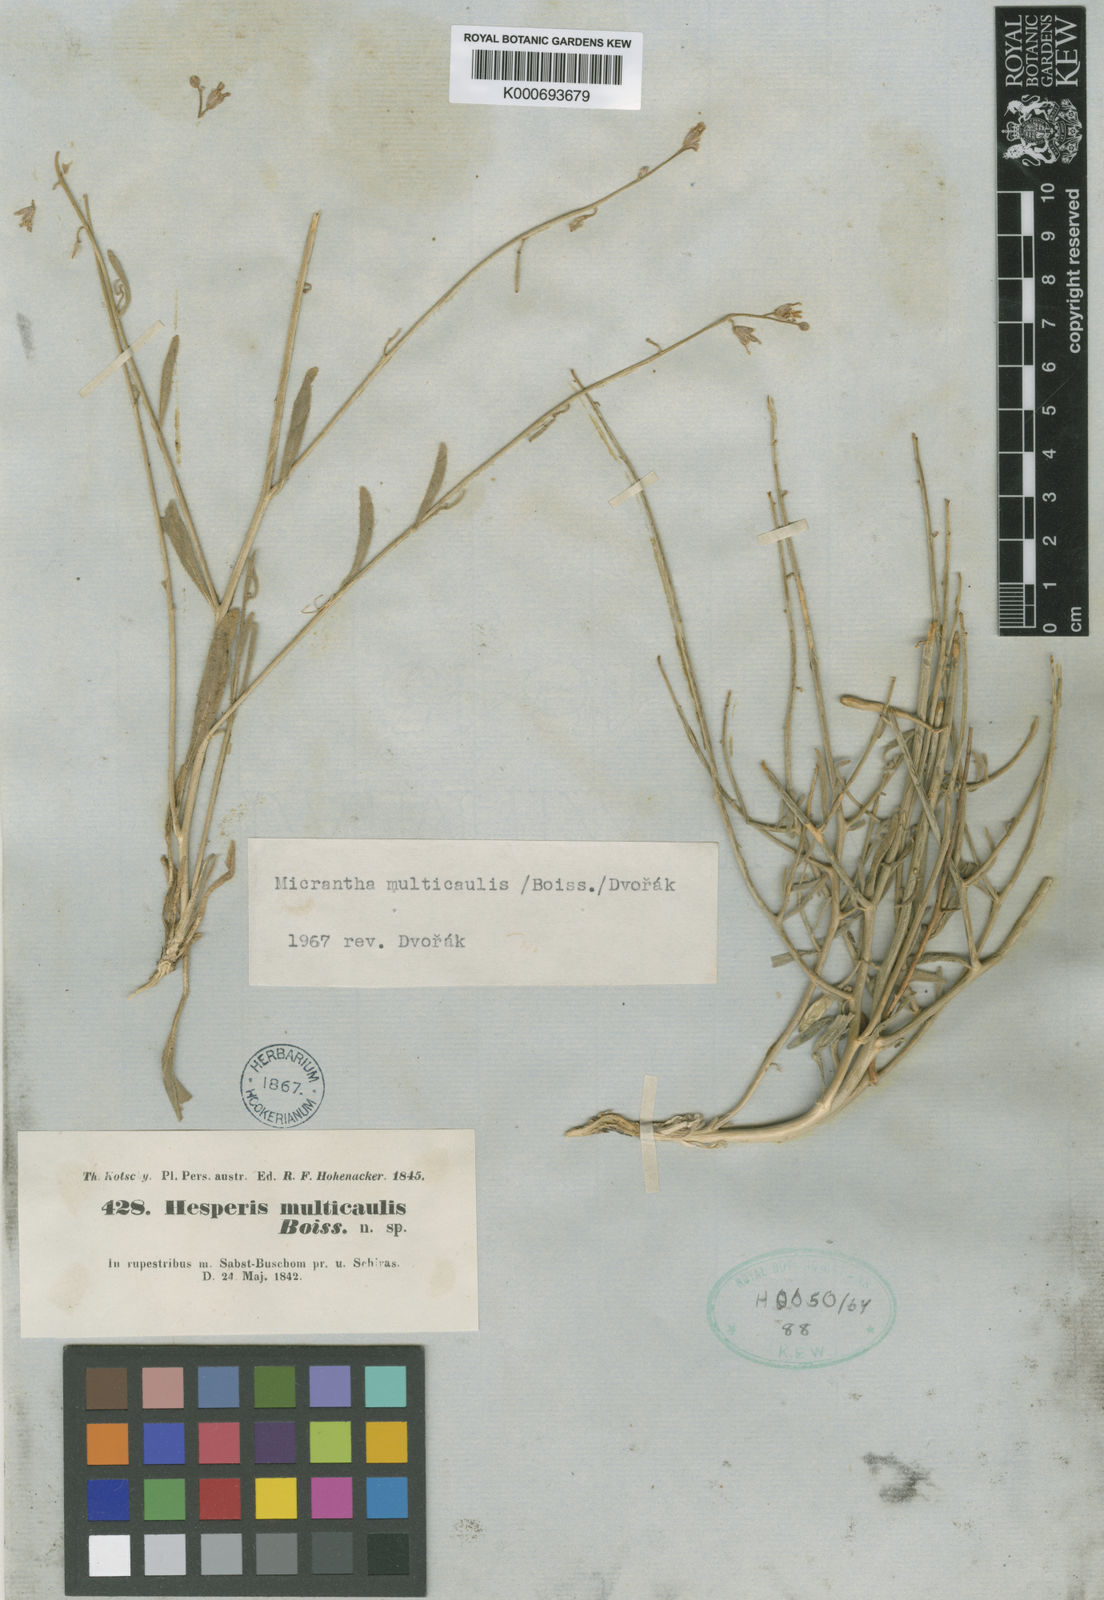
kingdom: Plantae
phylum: Tracheophyta
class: Magnoliopsida
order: Brassicales
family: Brassicaceae
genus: Micrantha
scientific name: Micrantha
